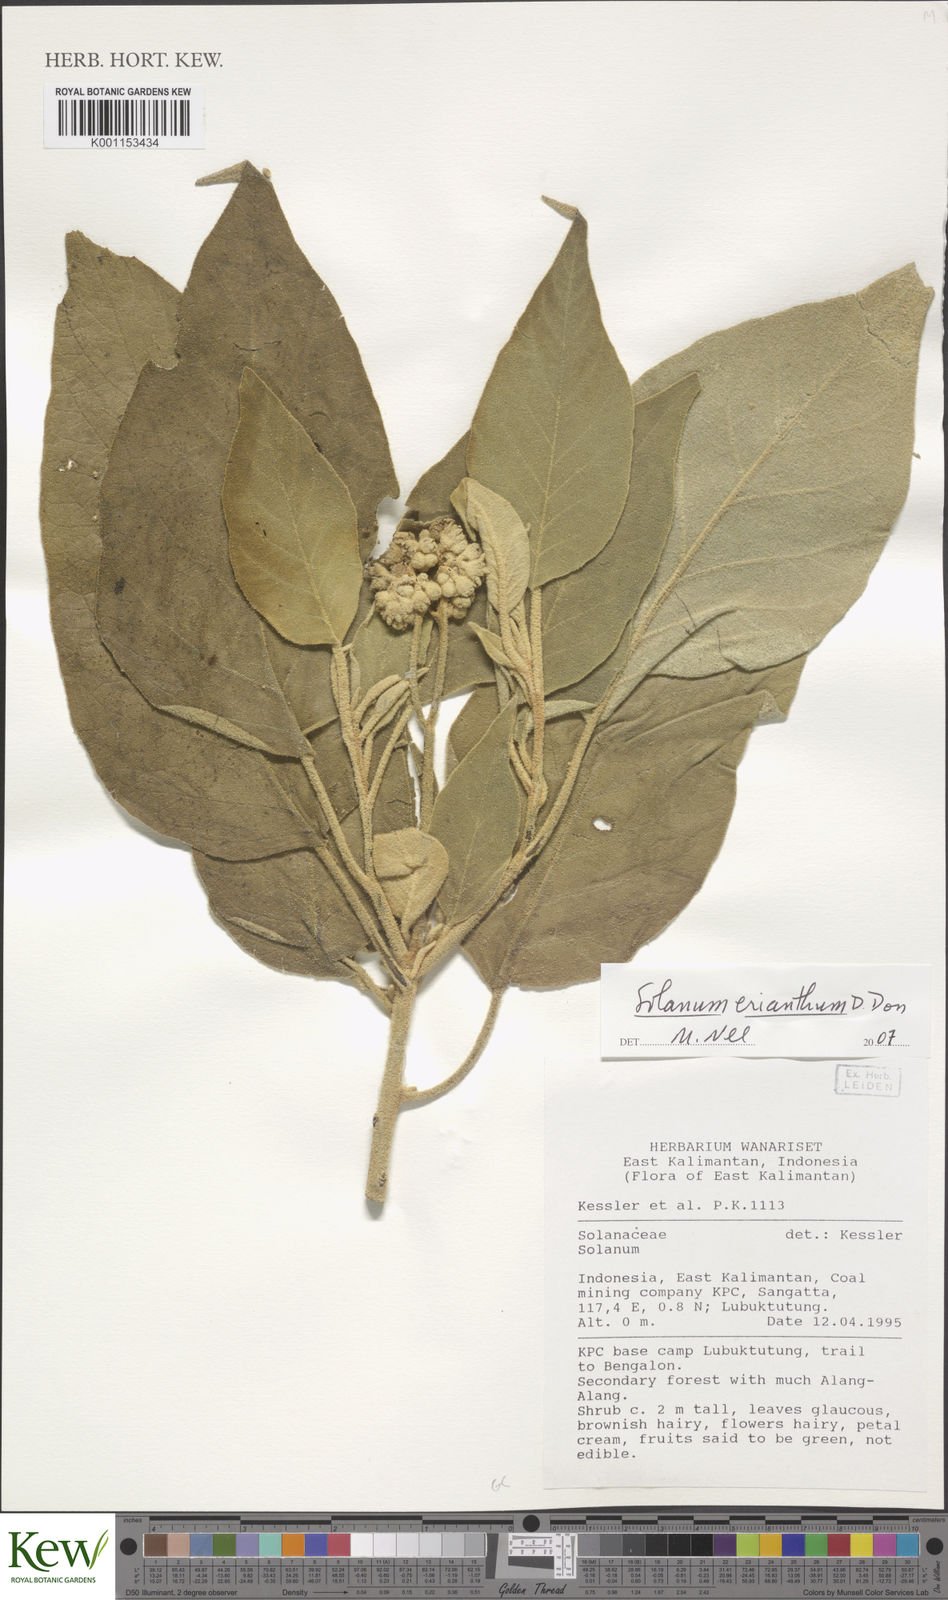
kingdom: Plantae
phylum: Tracheophyta
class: Magnoliopsida
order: Solanales
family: Solanaceae
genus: Solanum
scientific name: Solanum erianthum
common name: Tobacco-tree
